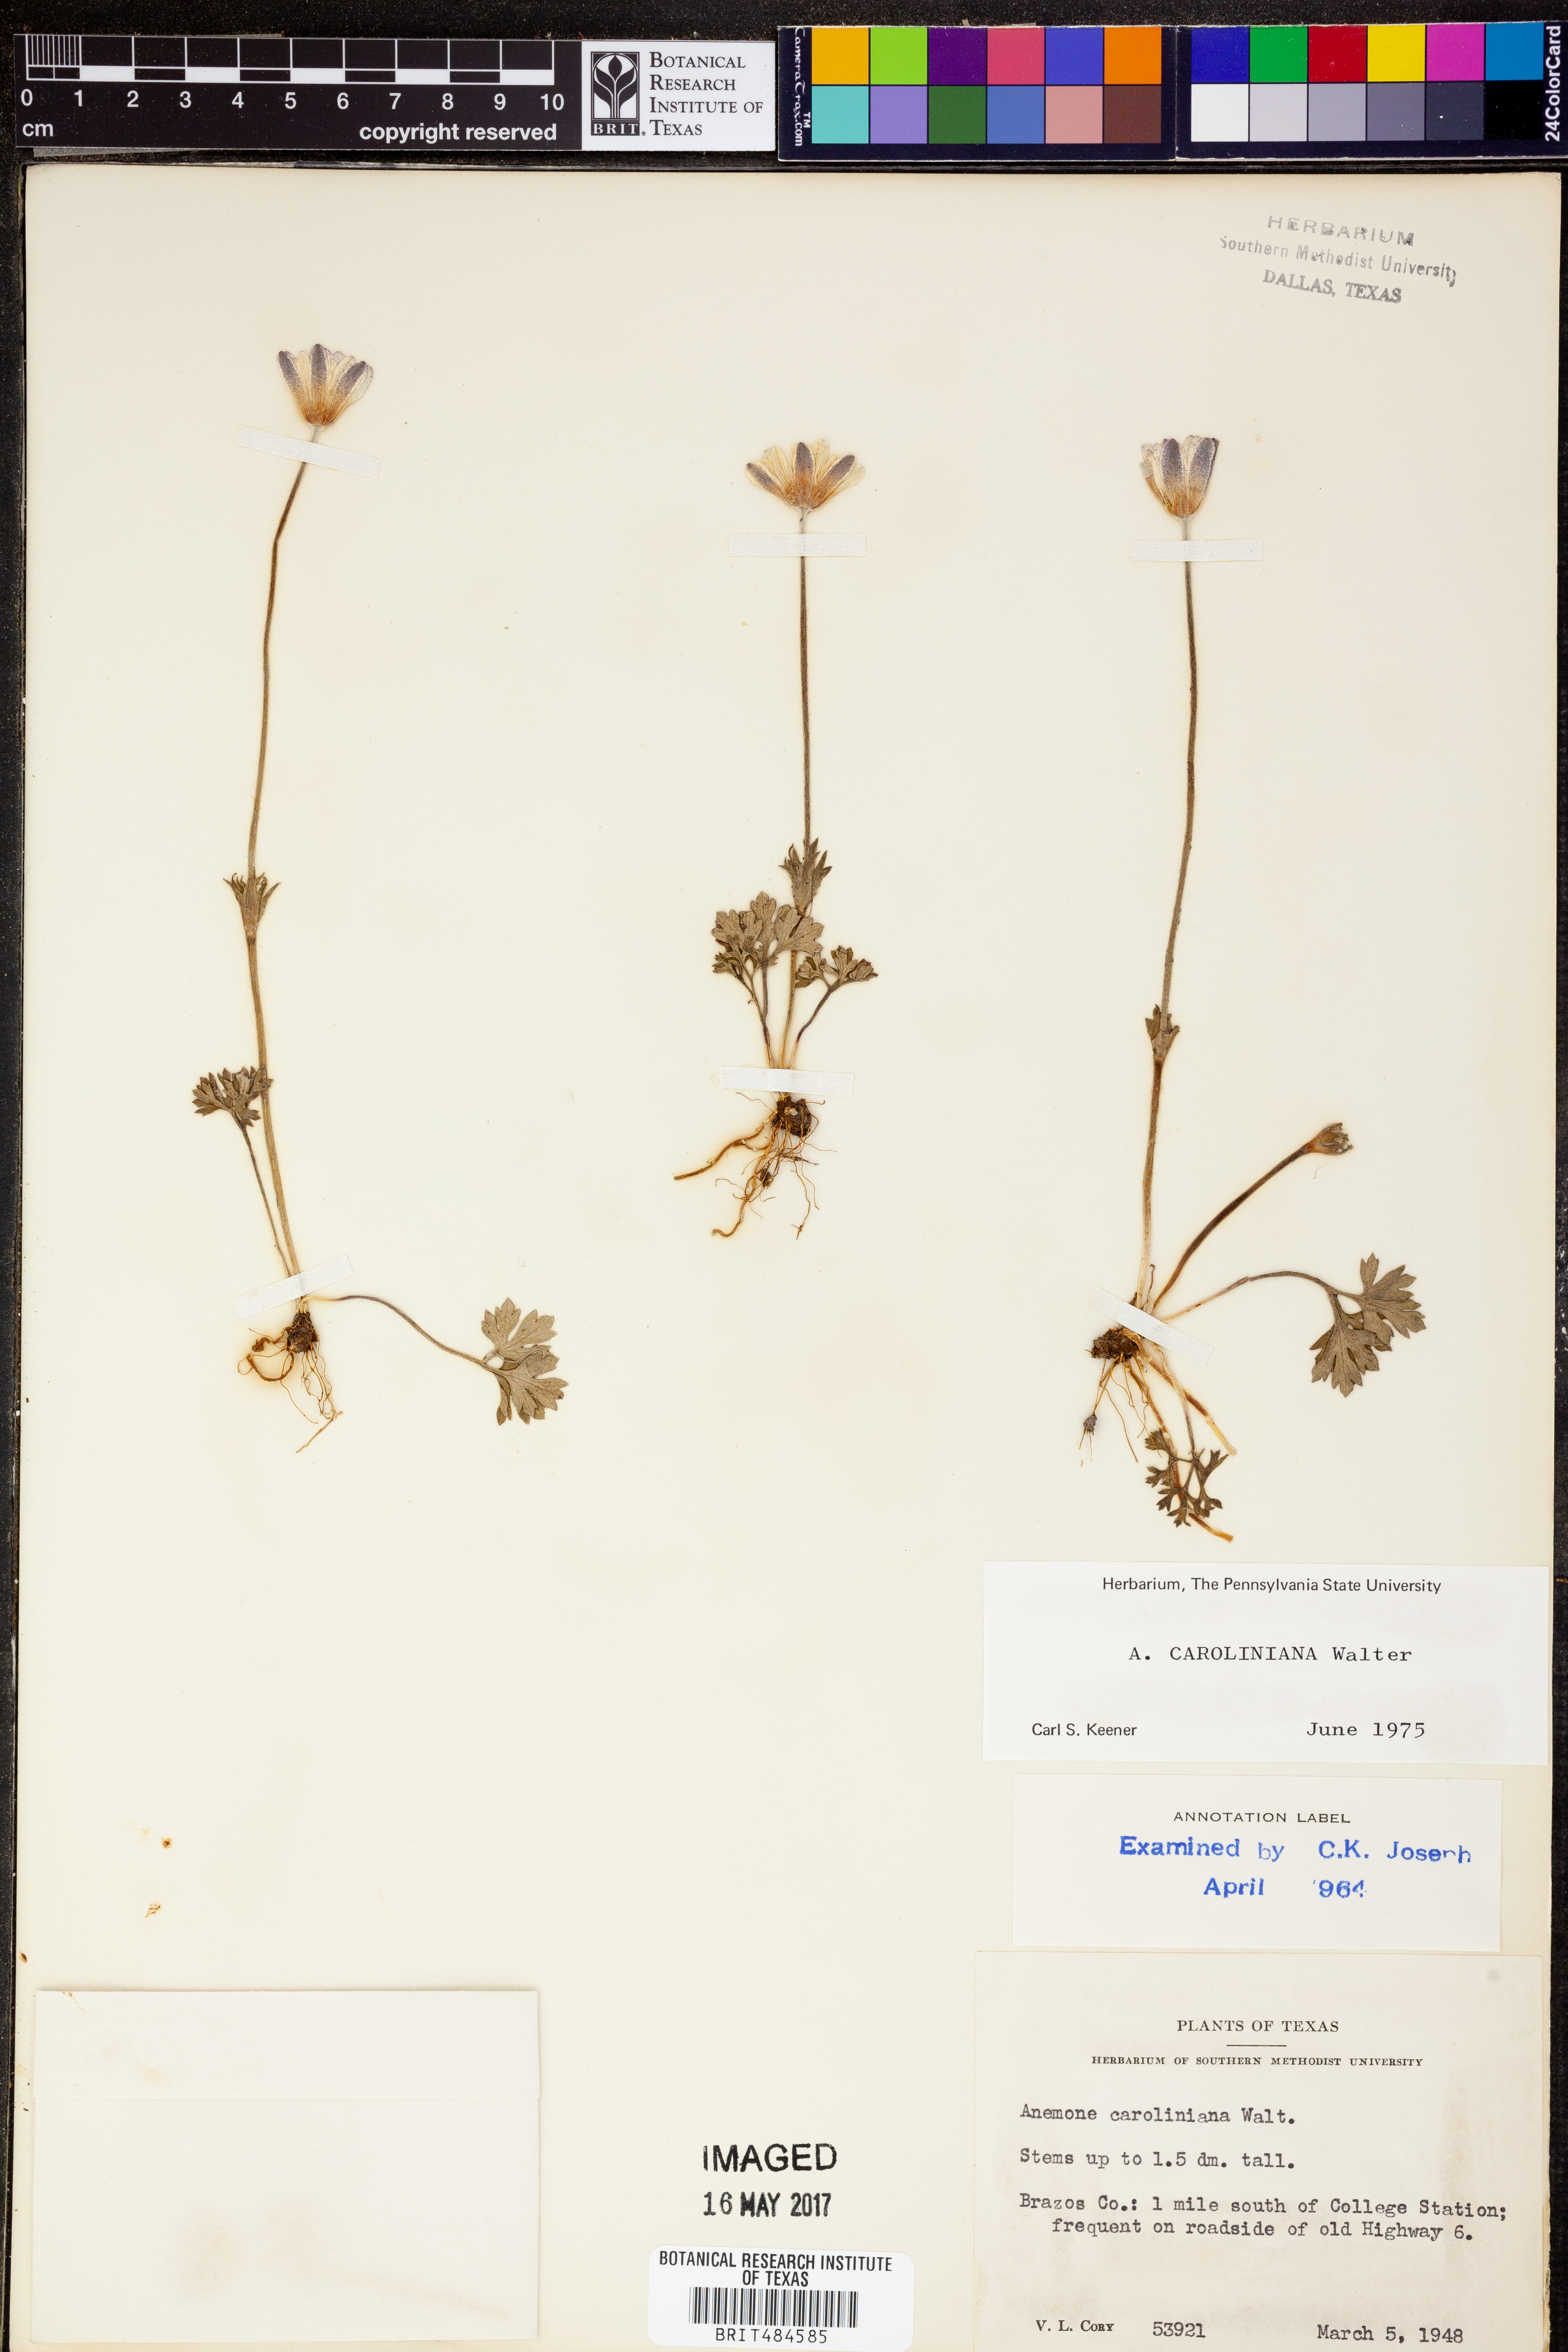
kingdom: Plantae
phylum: Tracheophyta
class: Magnoliopsida
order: Ranunculales
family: Ranunculaceae
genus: Anemone
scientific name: Anemone caroliniana
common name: Carolina anemone
